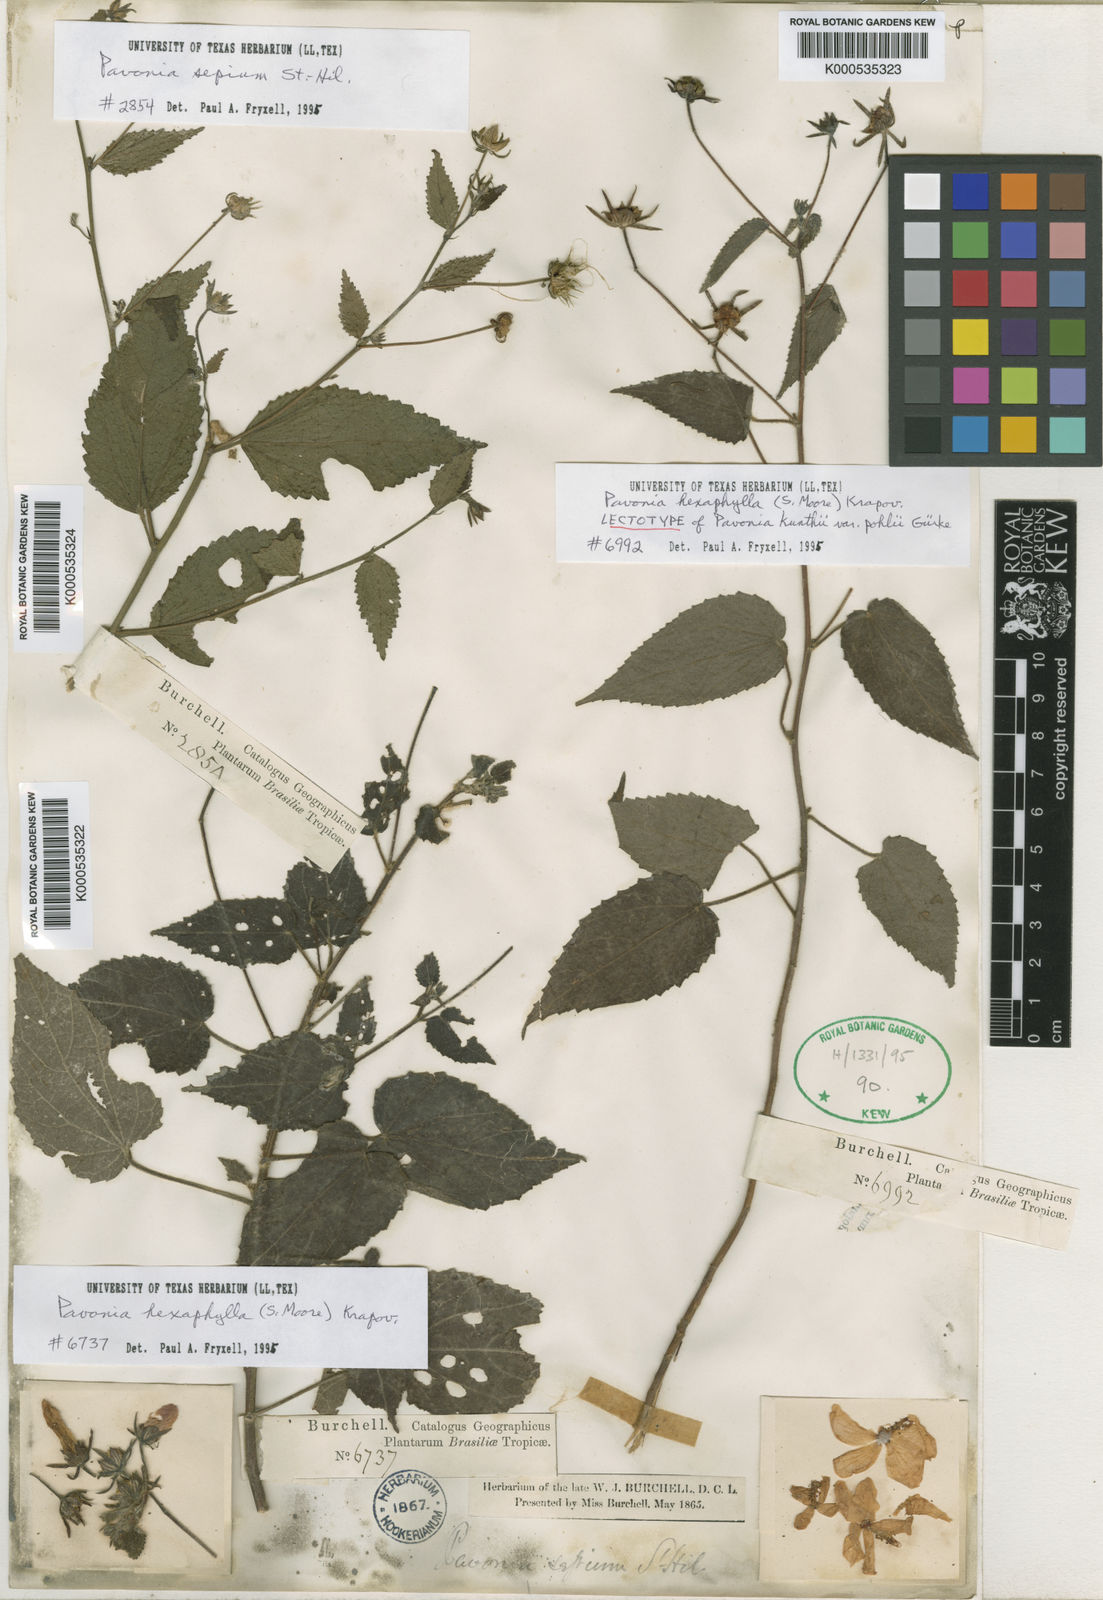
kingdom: Plantae
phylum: Tracheophyta
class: Magnoliopsida
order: Malvales
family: Malvaceae
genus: Pavonia
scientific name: Pavonia hexaphylla
